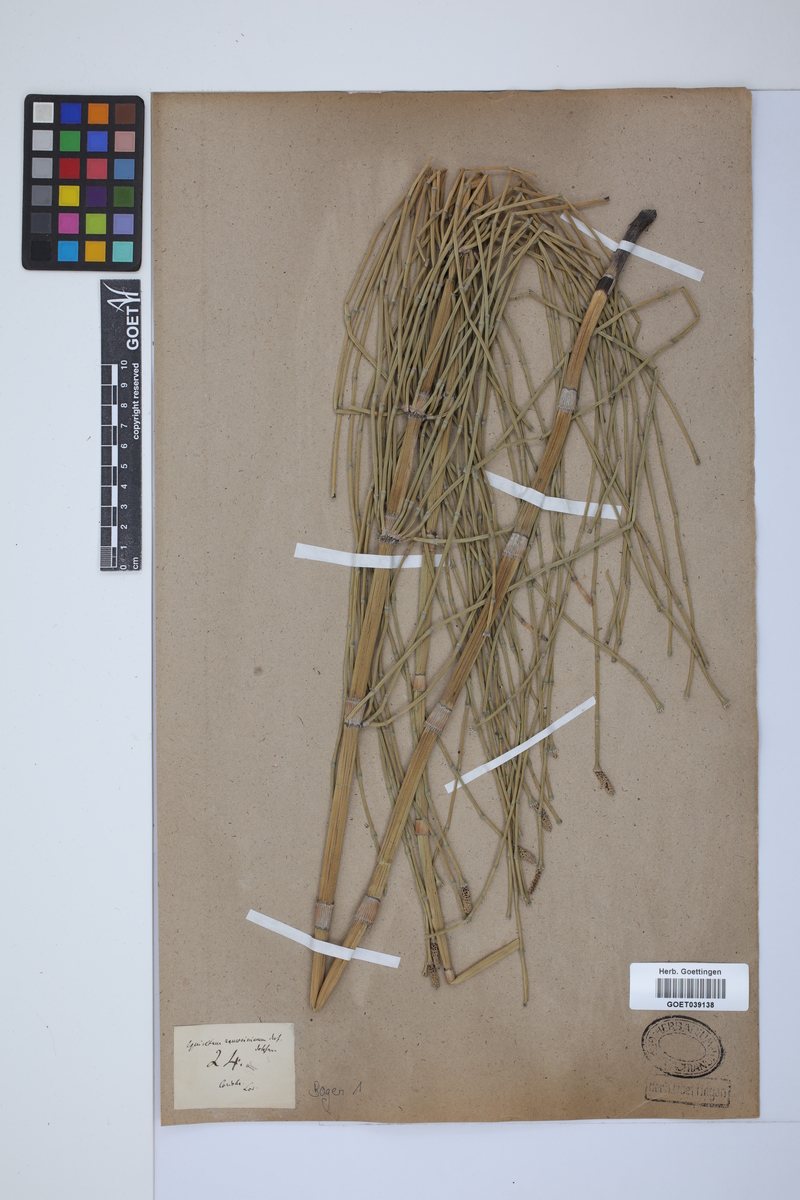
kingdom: Plantae
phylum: Tracheophyta
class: Polypodiopsida
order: Equisetales
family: Equisetaceae
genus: Equisetum
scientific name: Equisetum giganteum
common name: Giant horsetail
